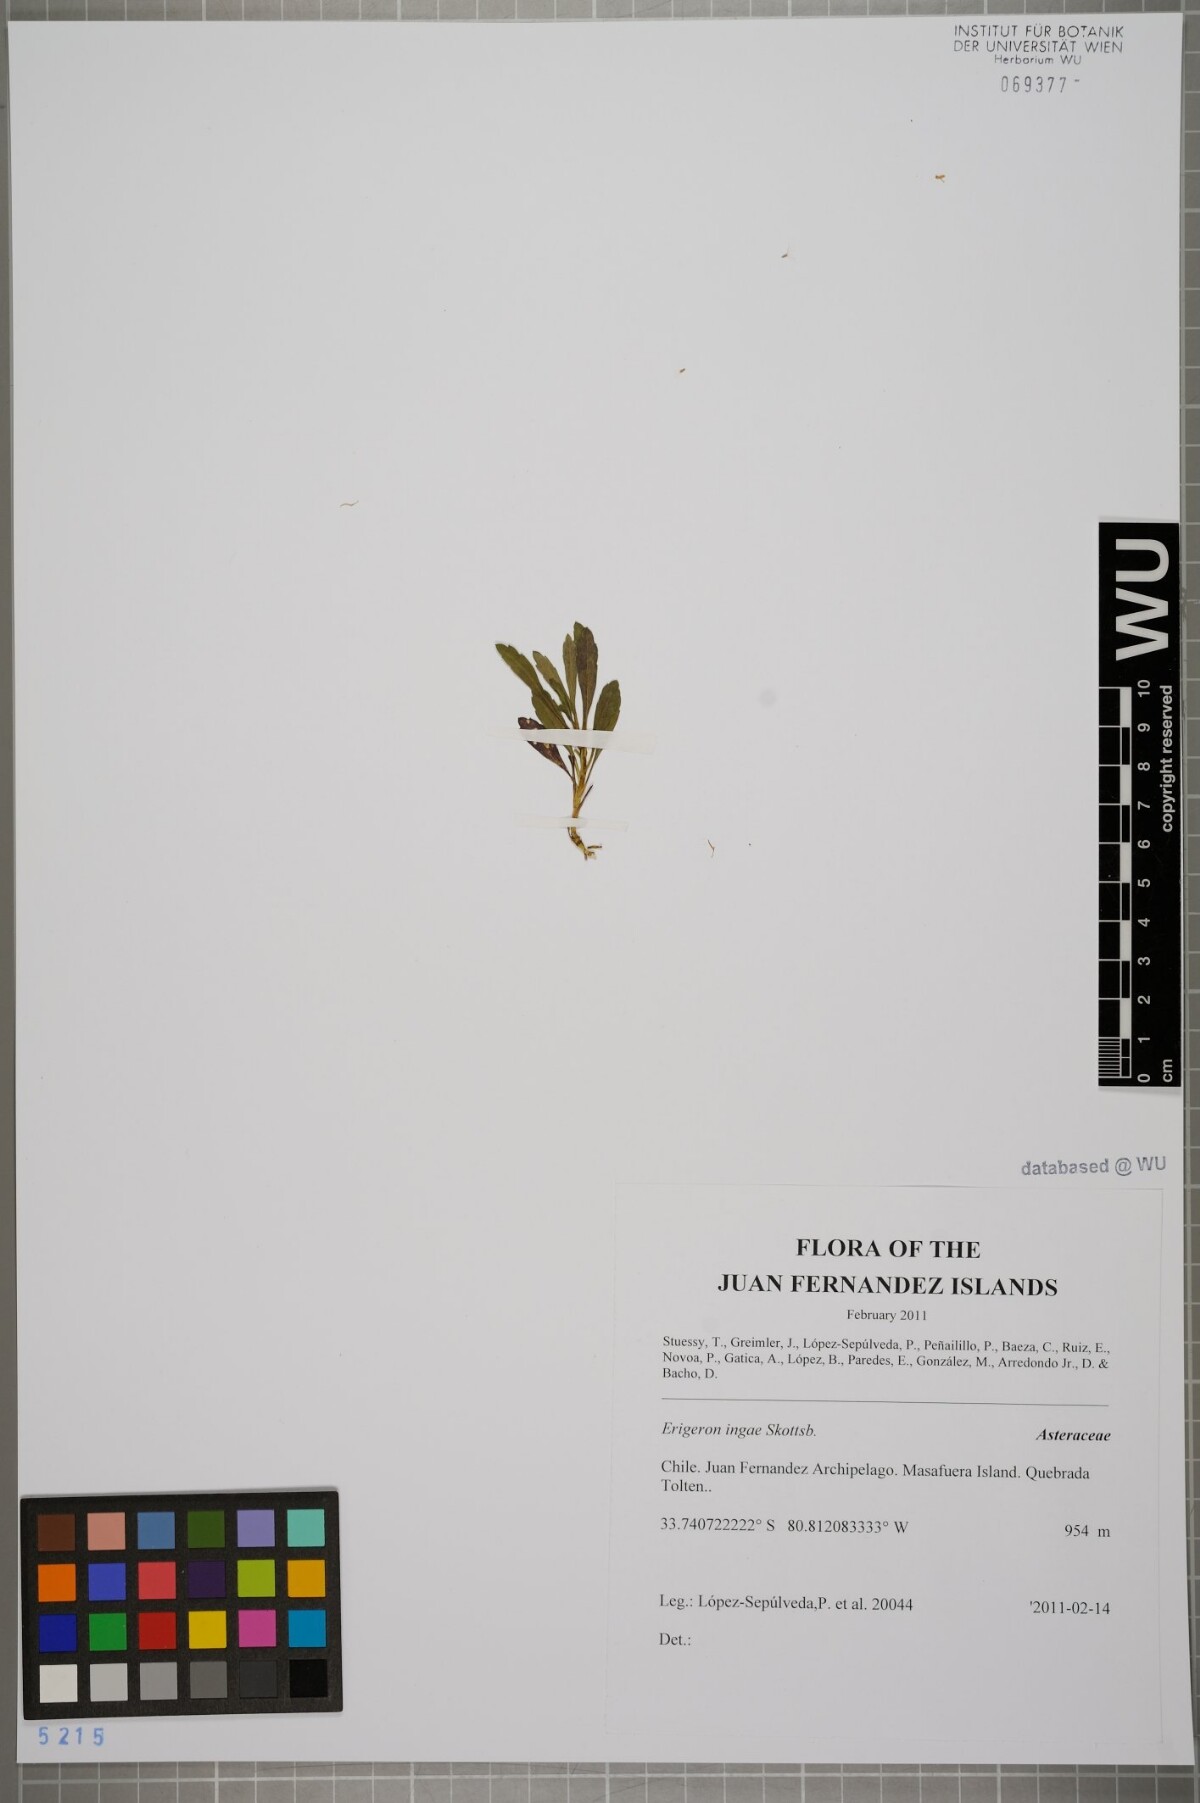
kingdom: Plantae
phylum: Tracheophyta
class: Magnoliopsida
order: Asterales
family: Asteraceae
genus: Erigeron
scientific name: Erigeron ingae
